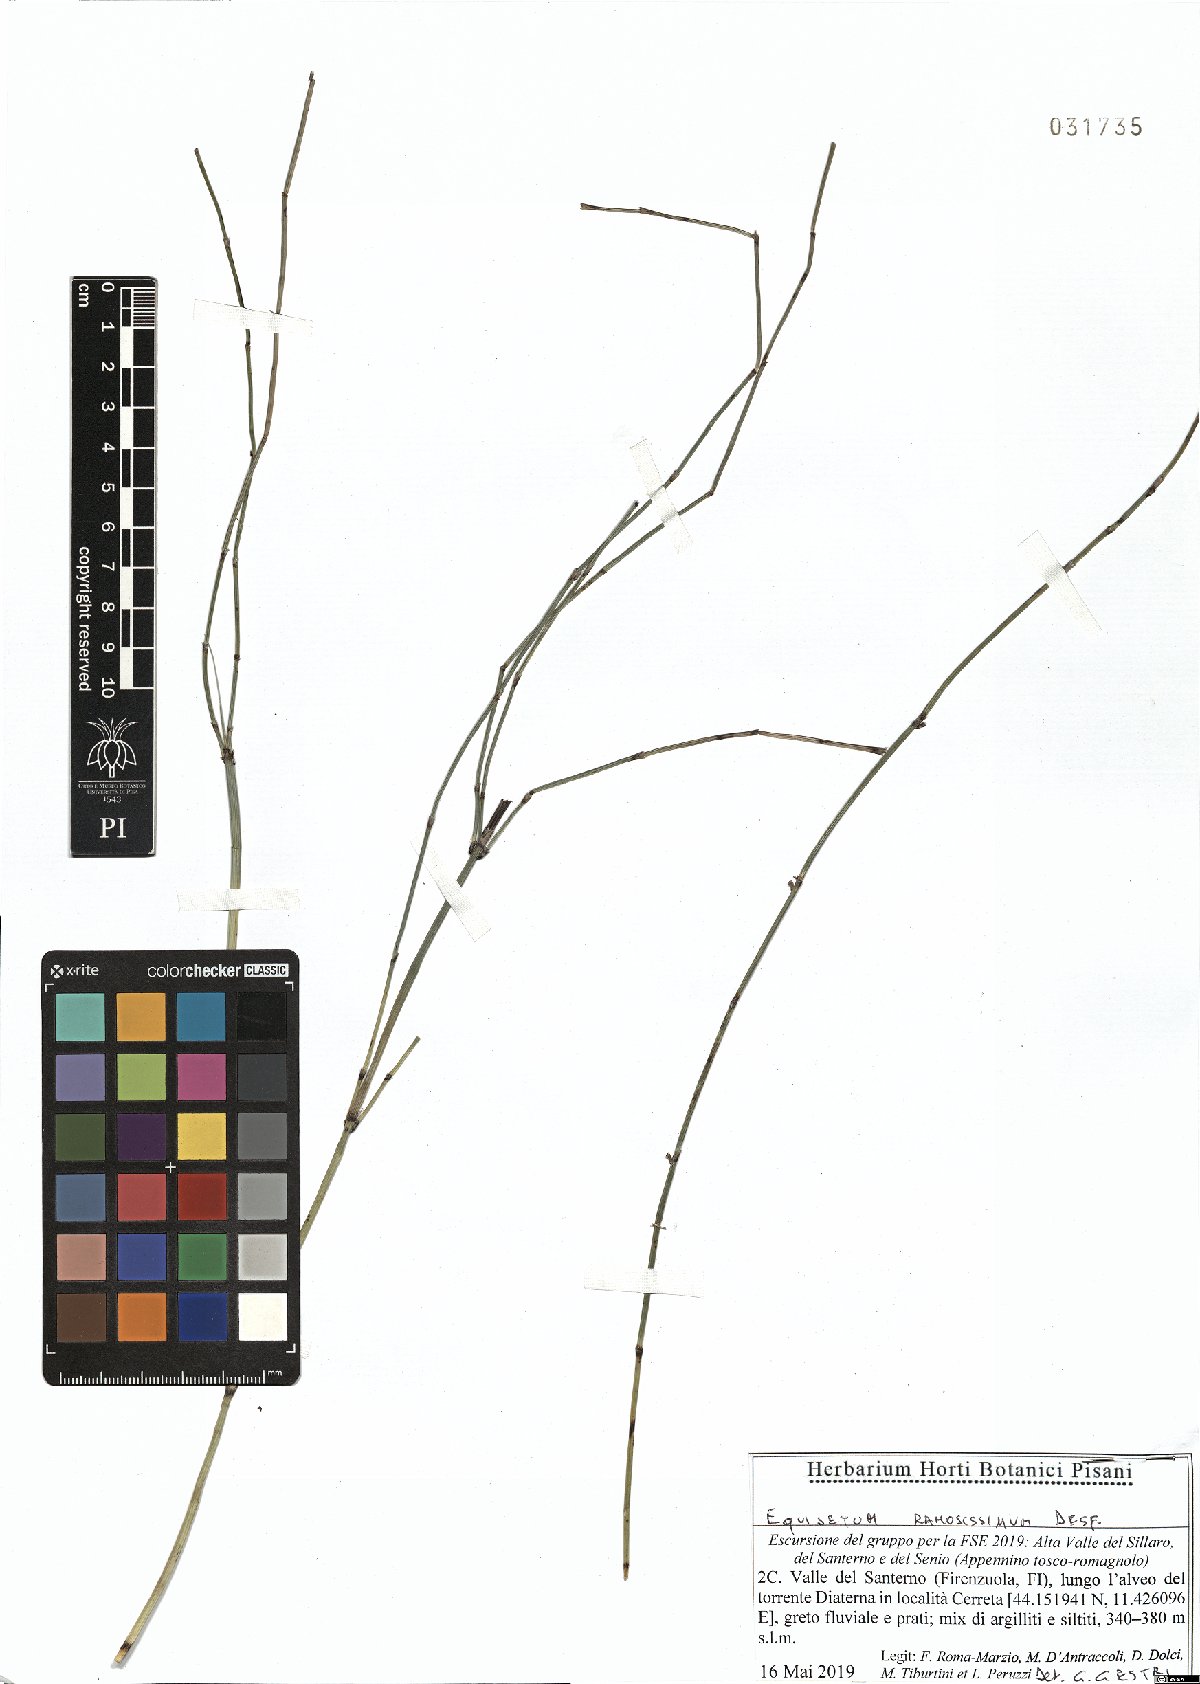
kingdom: Plantae
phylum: Tracheophyta
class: Polypodiopsida
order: Equisetales
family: Equisetaceae
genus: Equisetum
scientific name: Equisetum ramosissimum
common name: Branched horsetail
